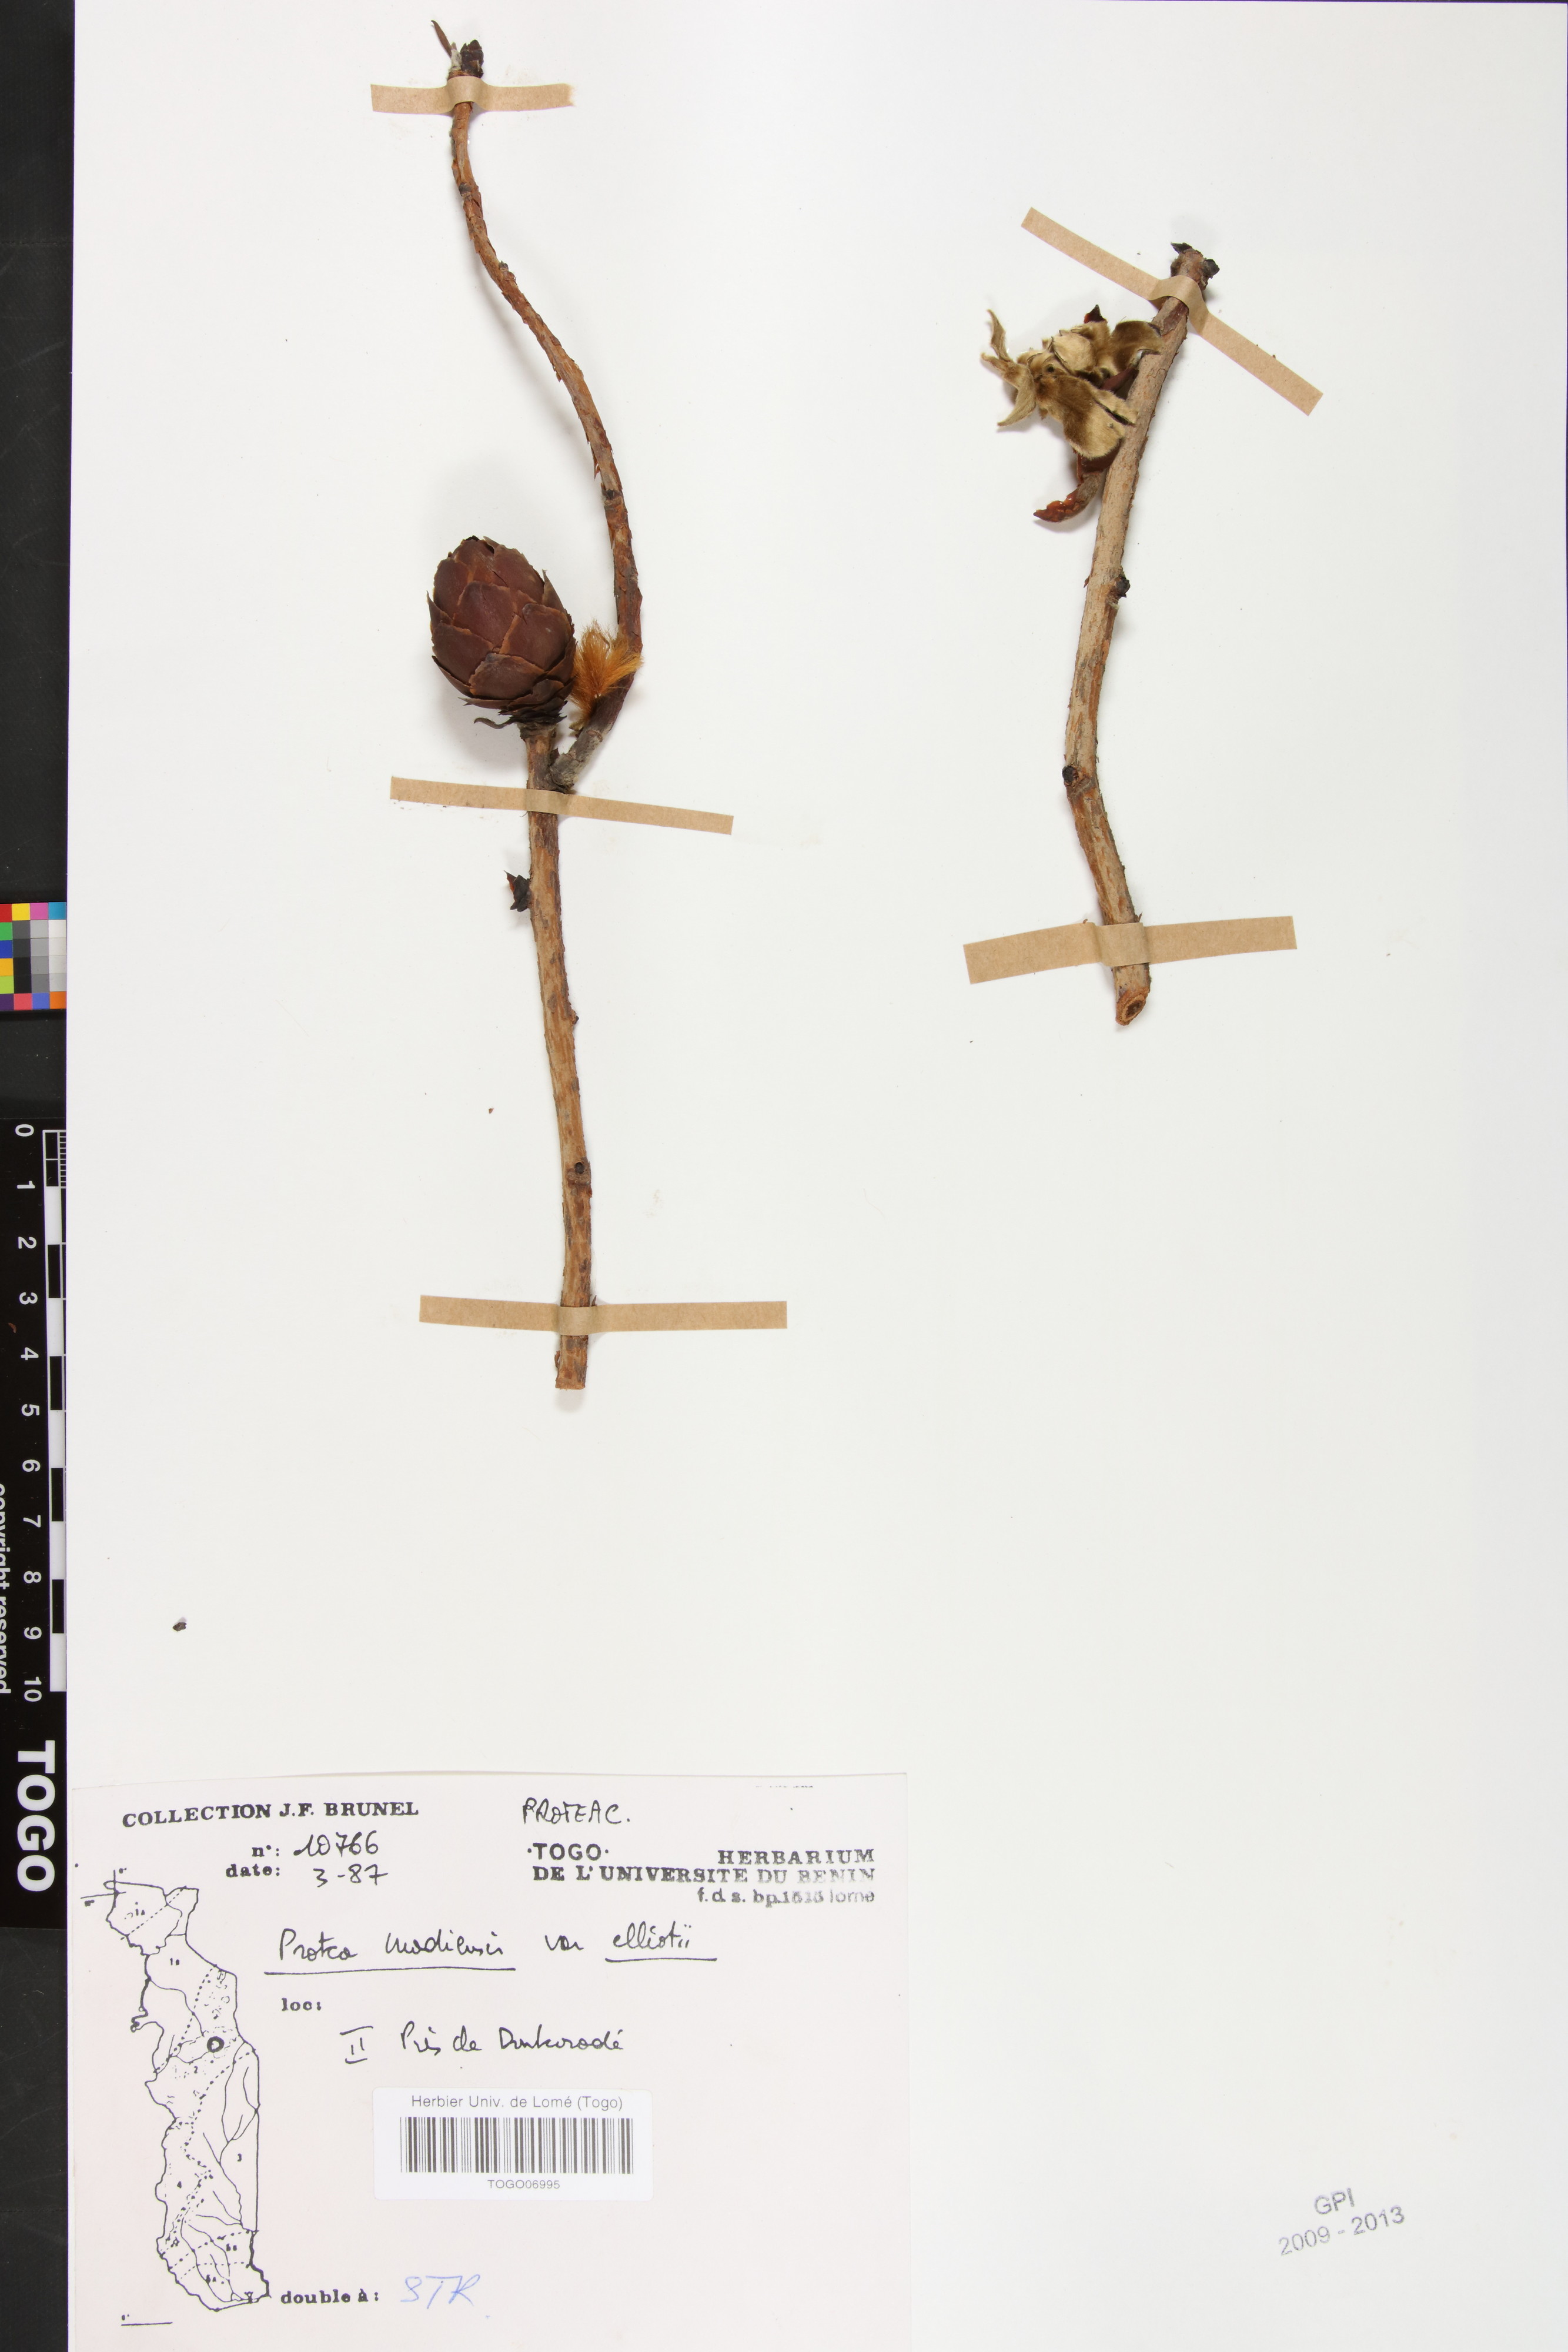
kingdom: Plantae
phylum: Tracheophyta
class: Magnoliopsida
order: Proteales
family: Proteaceae
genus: Protea
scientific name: Protea madiensis
